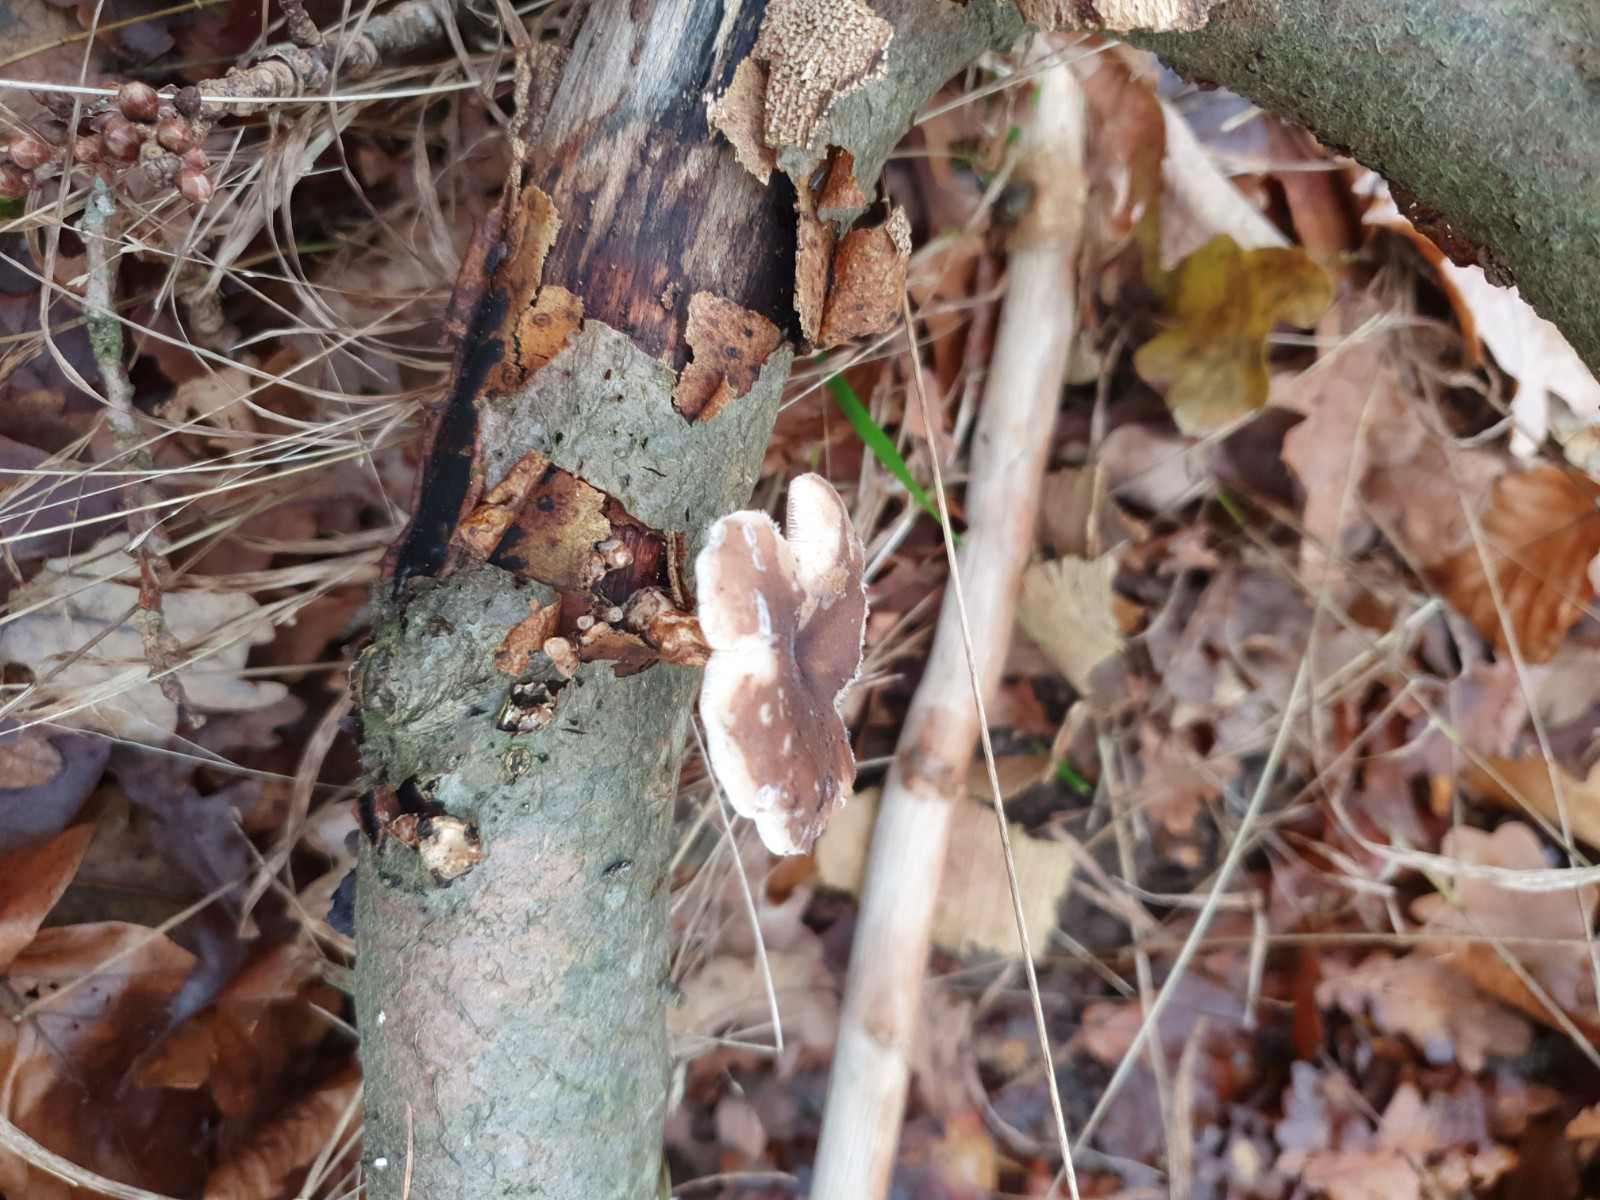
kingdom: Fungi
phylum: Basidiomycota
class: Agaricomycetes
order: Polyporales
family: Polyporaceae
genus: Lentinus
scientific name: Lentinus brumalis
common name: vinter-stilkporesvamp
